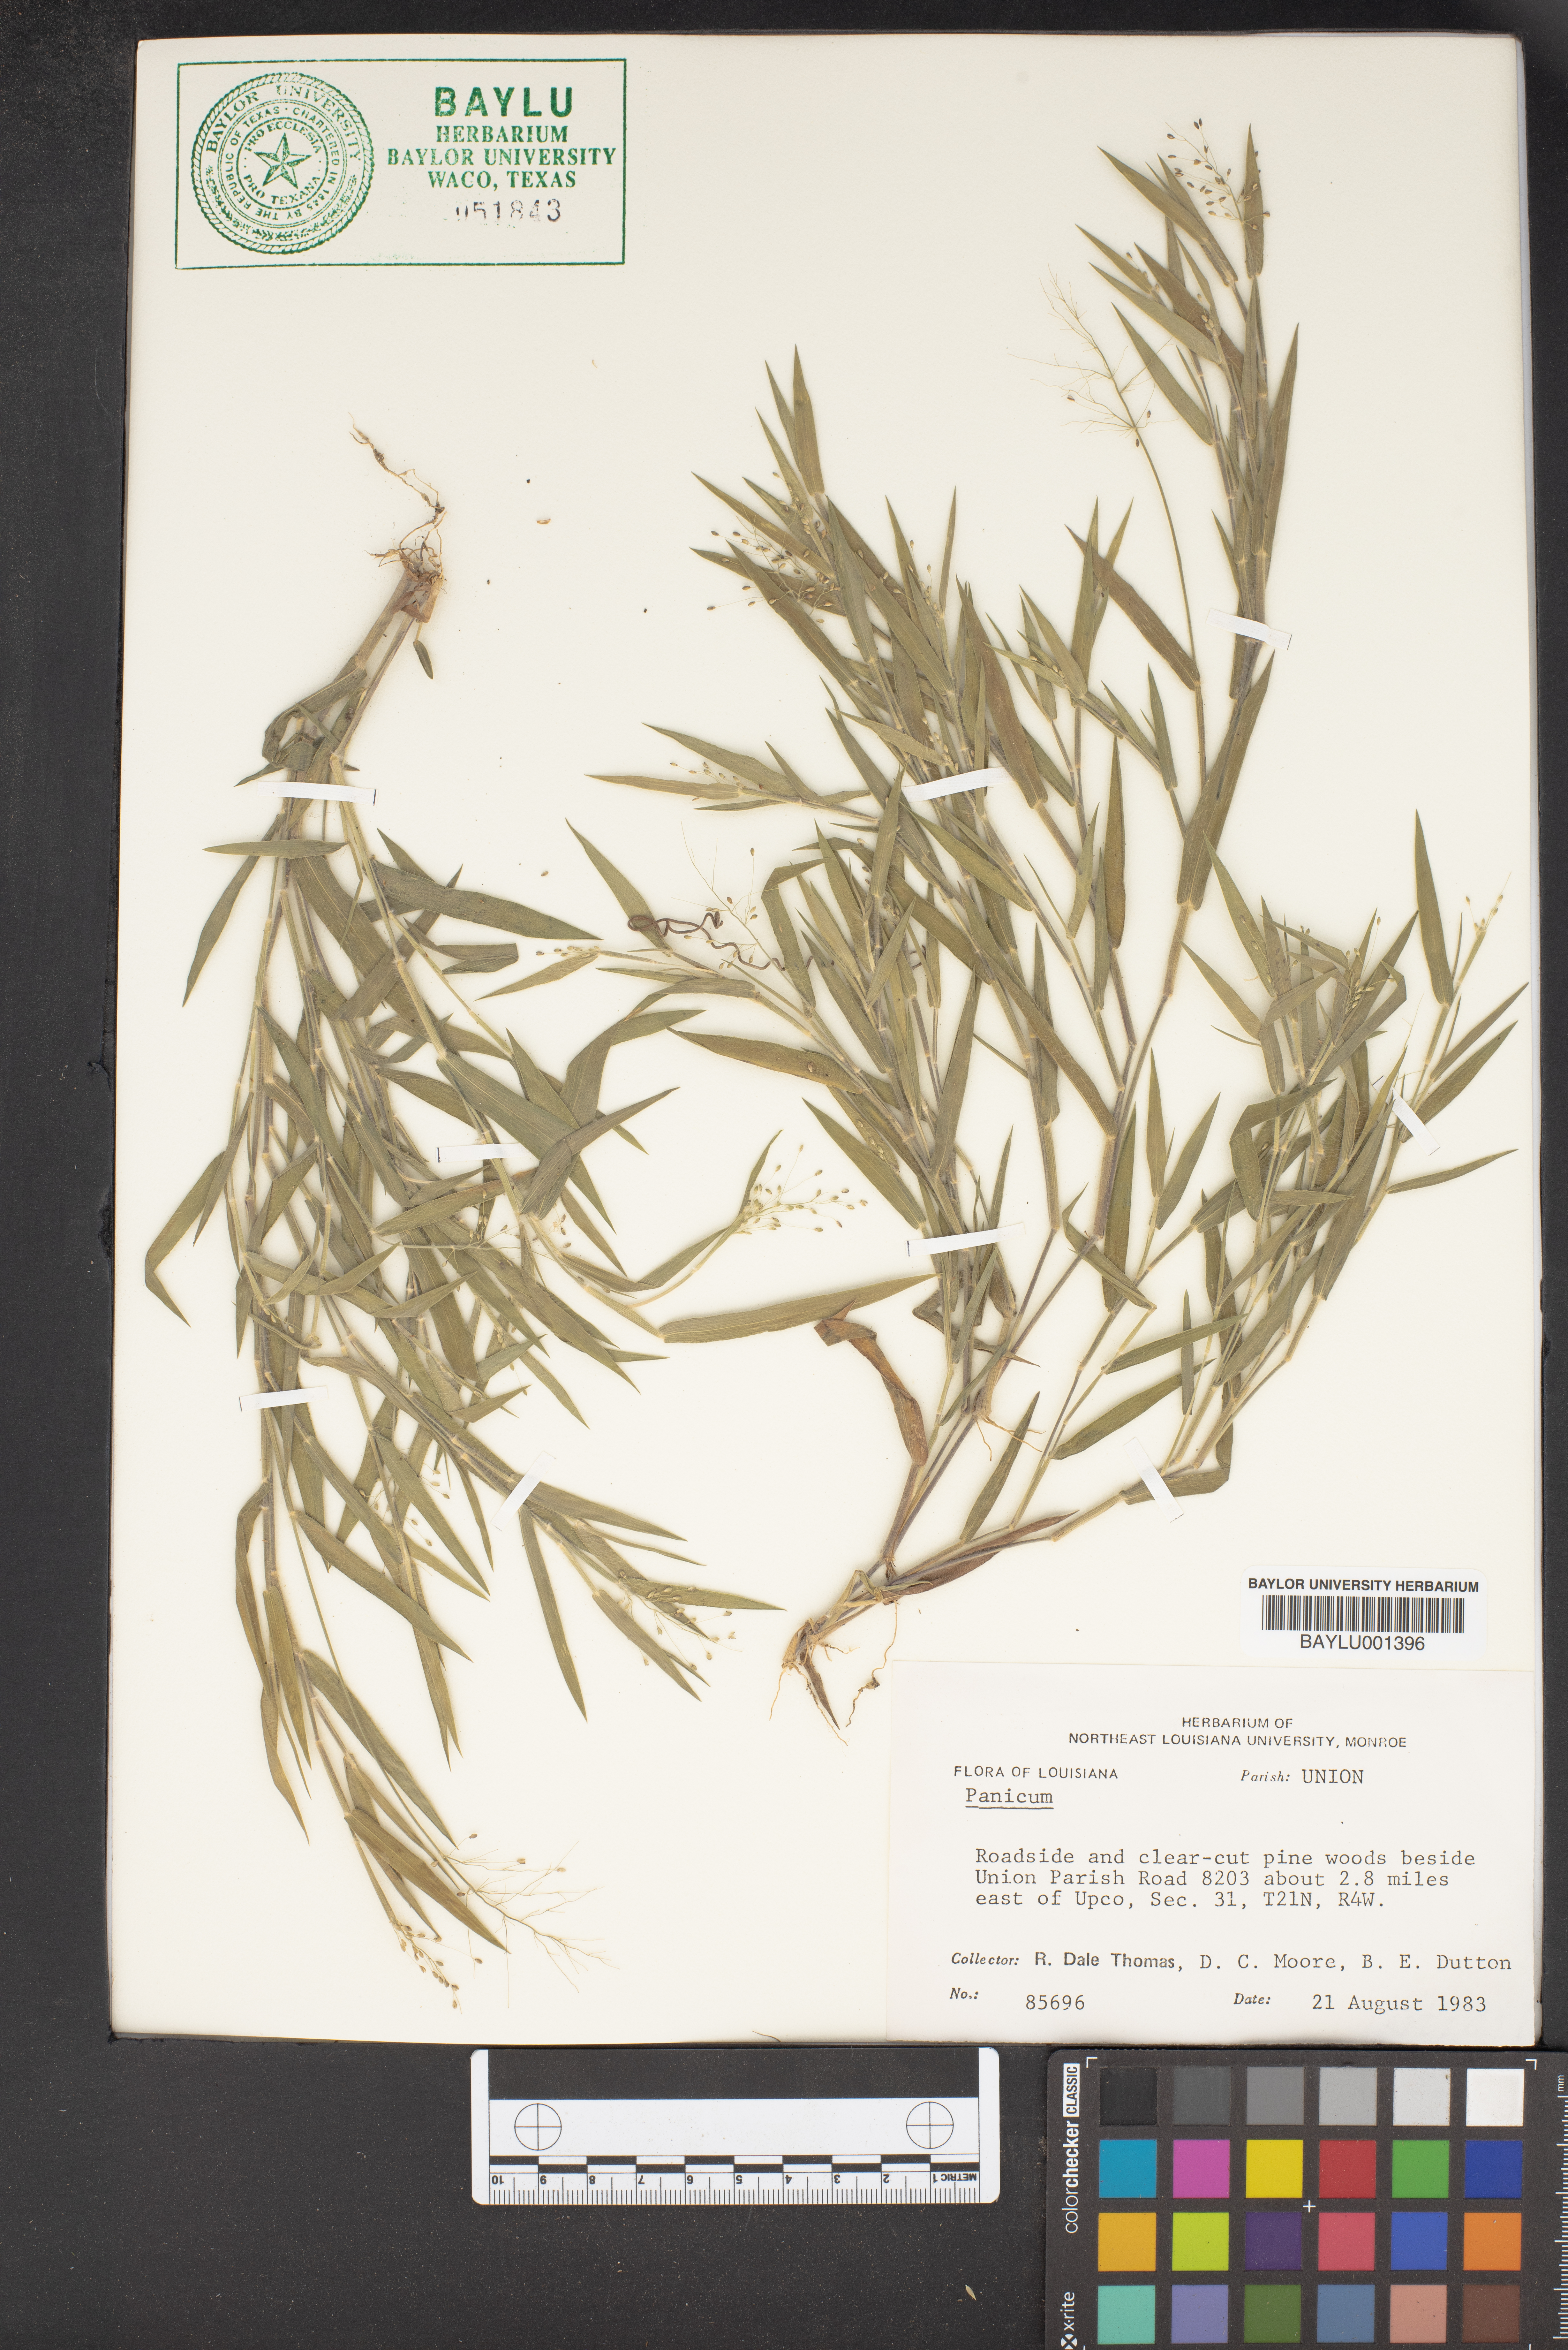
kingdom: Plantae
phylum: Tracheophyta
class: Liliopsida
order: Poales
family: Poaceae
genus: Panicum
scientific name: Panicum
